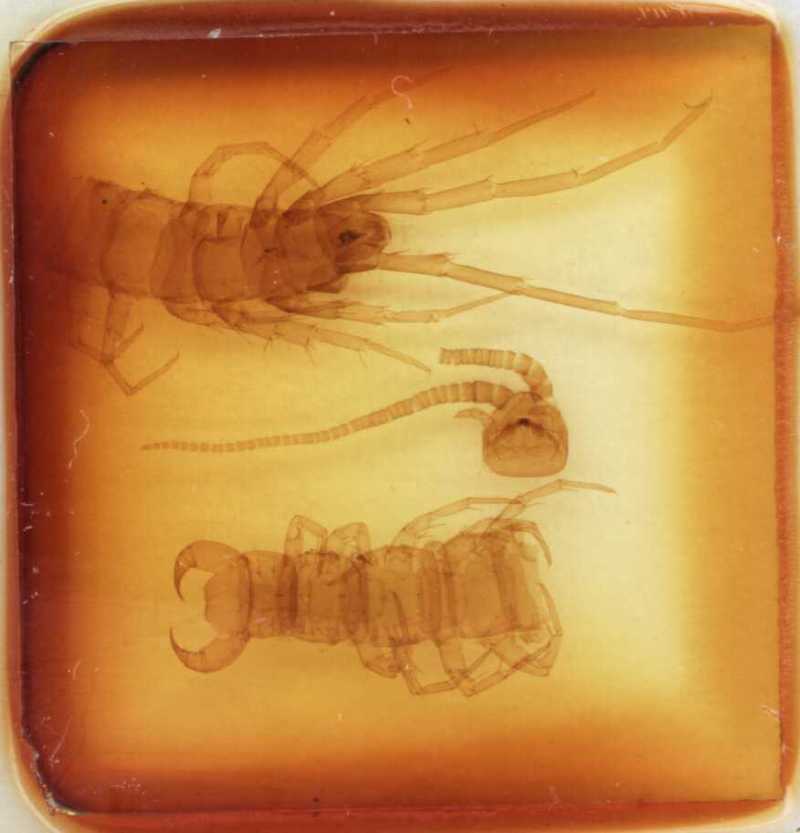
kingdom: Animalia
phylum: Arthropoda
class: Chilopoda
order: Lithobiomorpha
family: Lithobiidae
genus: Polybothrus
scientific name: Polybothrus leptopus
